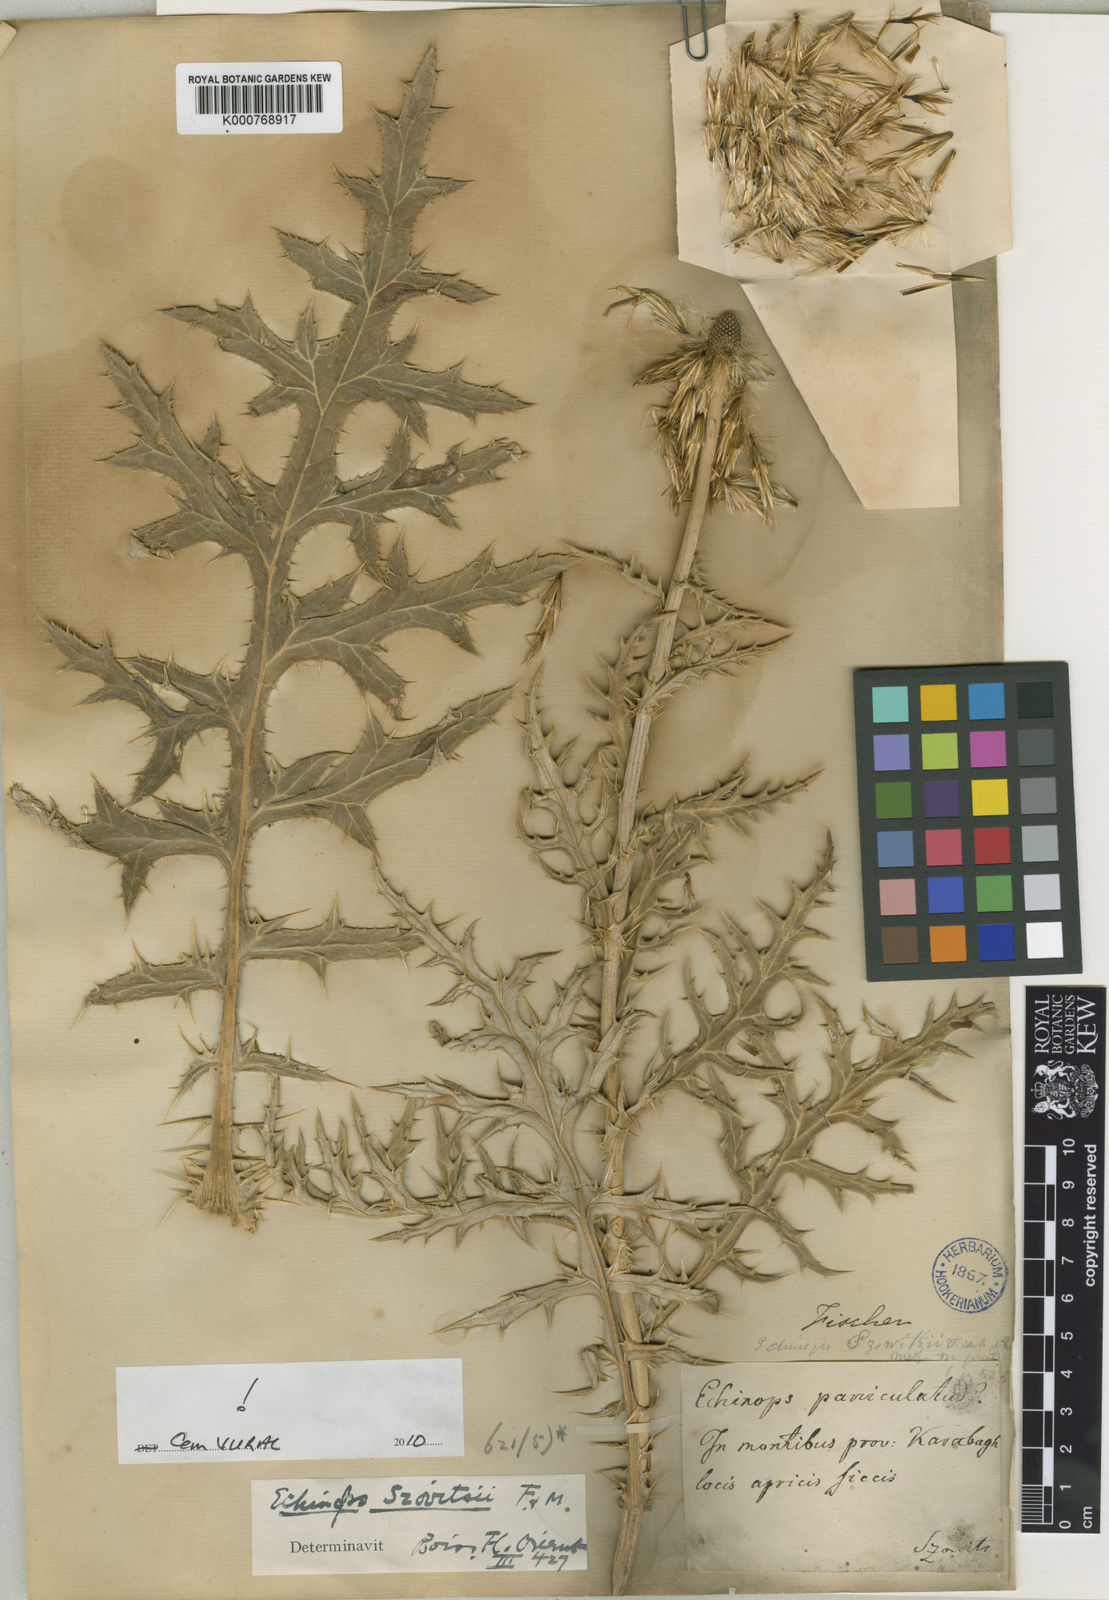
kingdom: Plantae
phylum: Tracheophyta
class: Magnoliopsida
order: Asterales
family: Asteraceae
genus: Echinops
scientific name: Echinops
